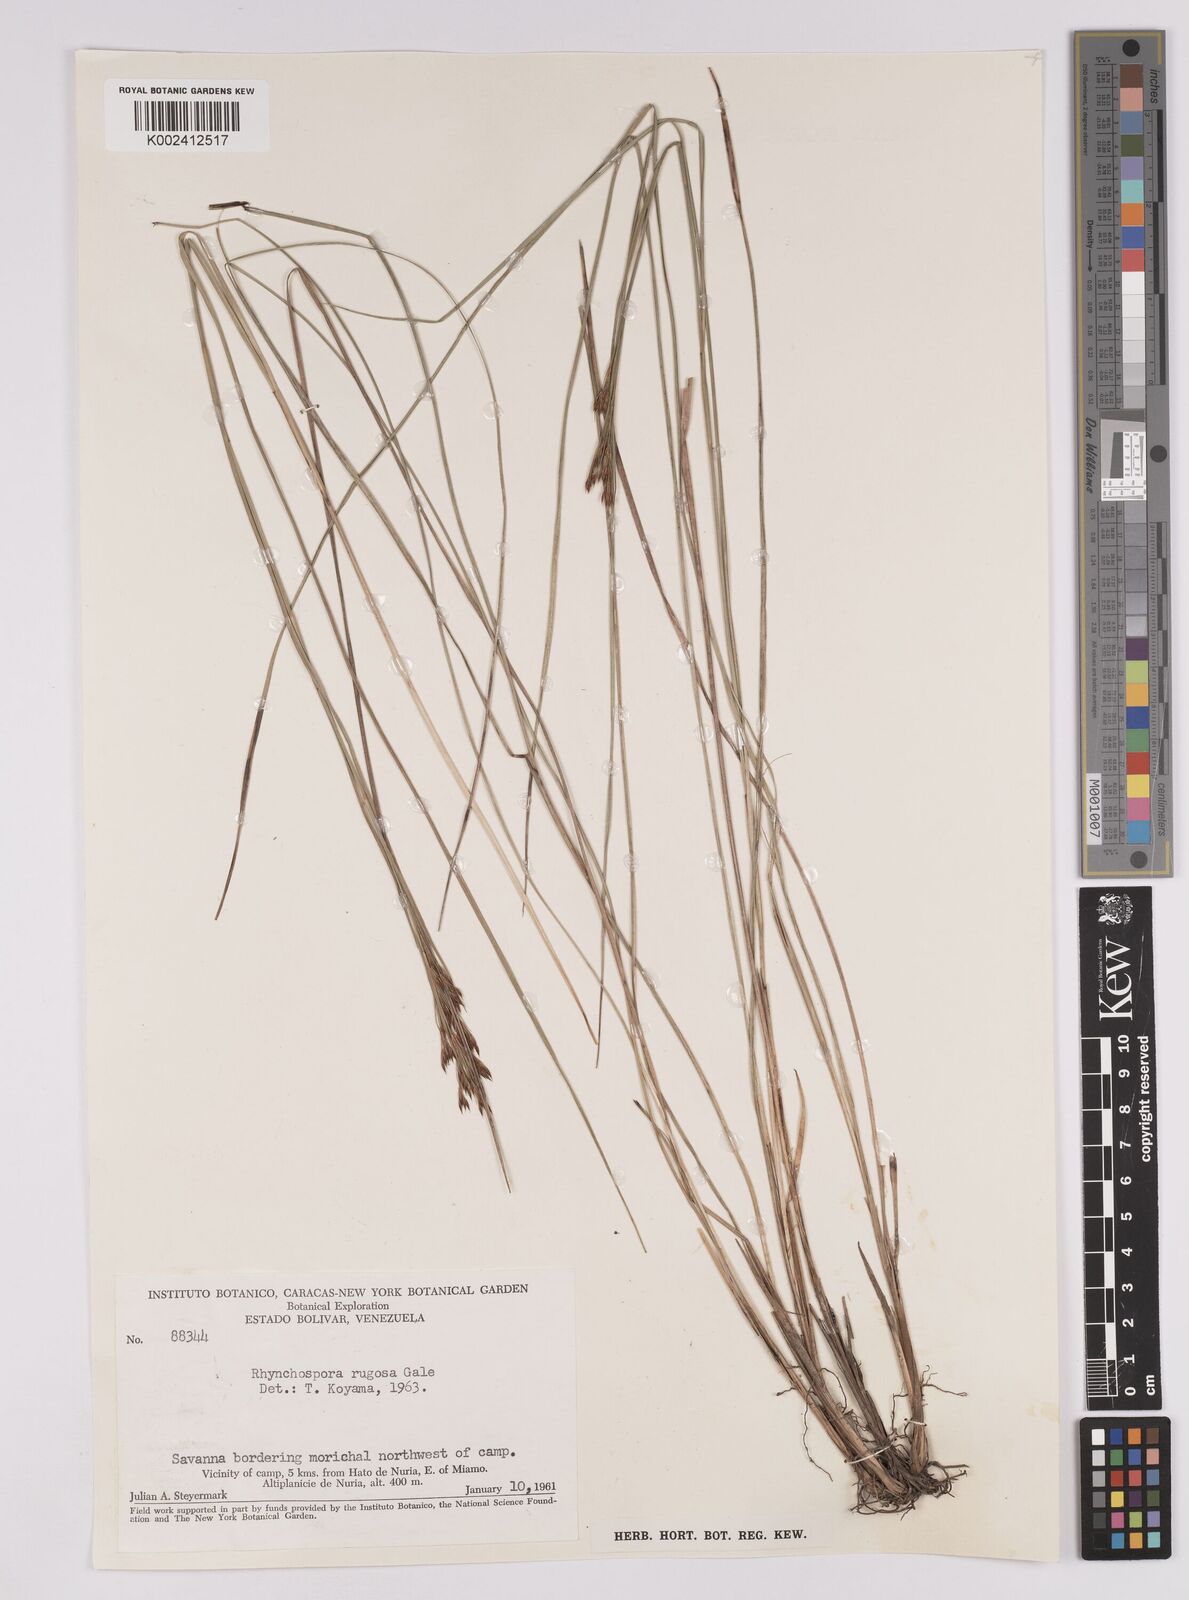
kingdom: Plantae
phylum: Tracheophyta
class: Liliopsida
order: Poales
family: Cyperaceae
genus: Rhynchospora
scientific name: Rhynchospora rugosa
